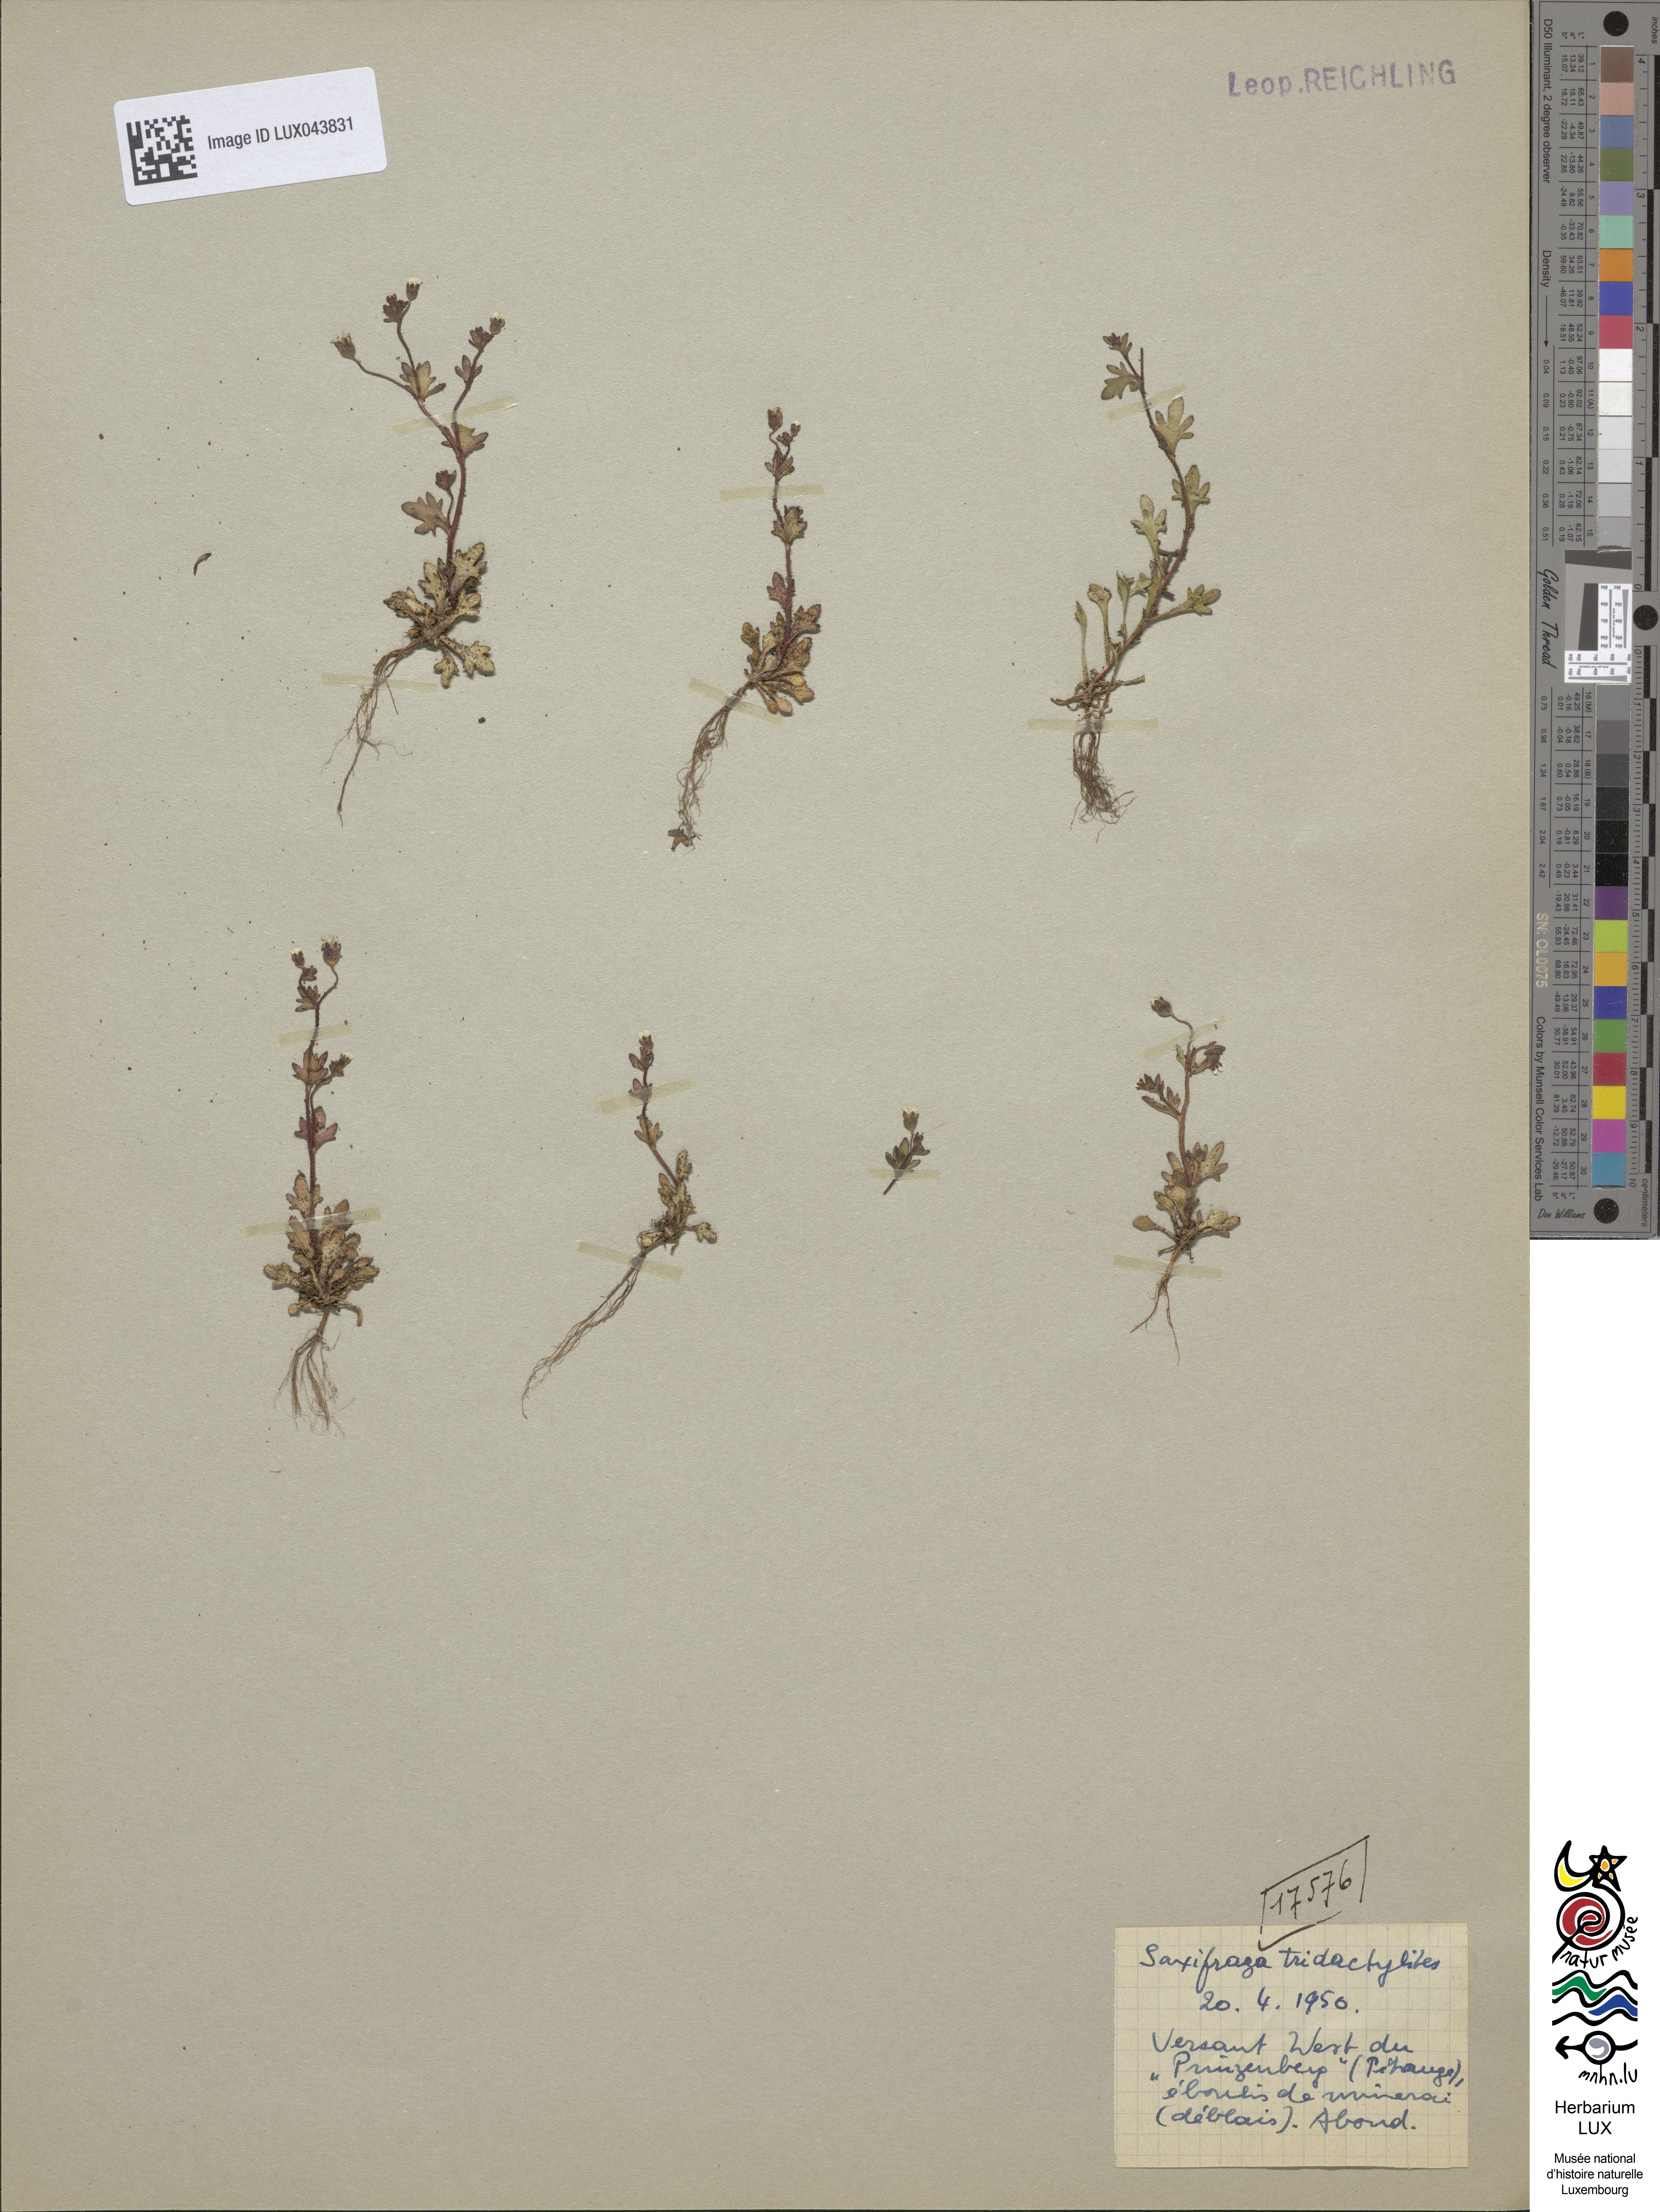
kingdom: Plantae
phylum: Tracheophyta
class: Magnoliopsida
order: Saxifragales
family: Saxifragaceae
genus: Saxifraga
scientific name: Saxifraga tridactylites
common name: Rue-leaved saxifrage
